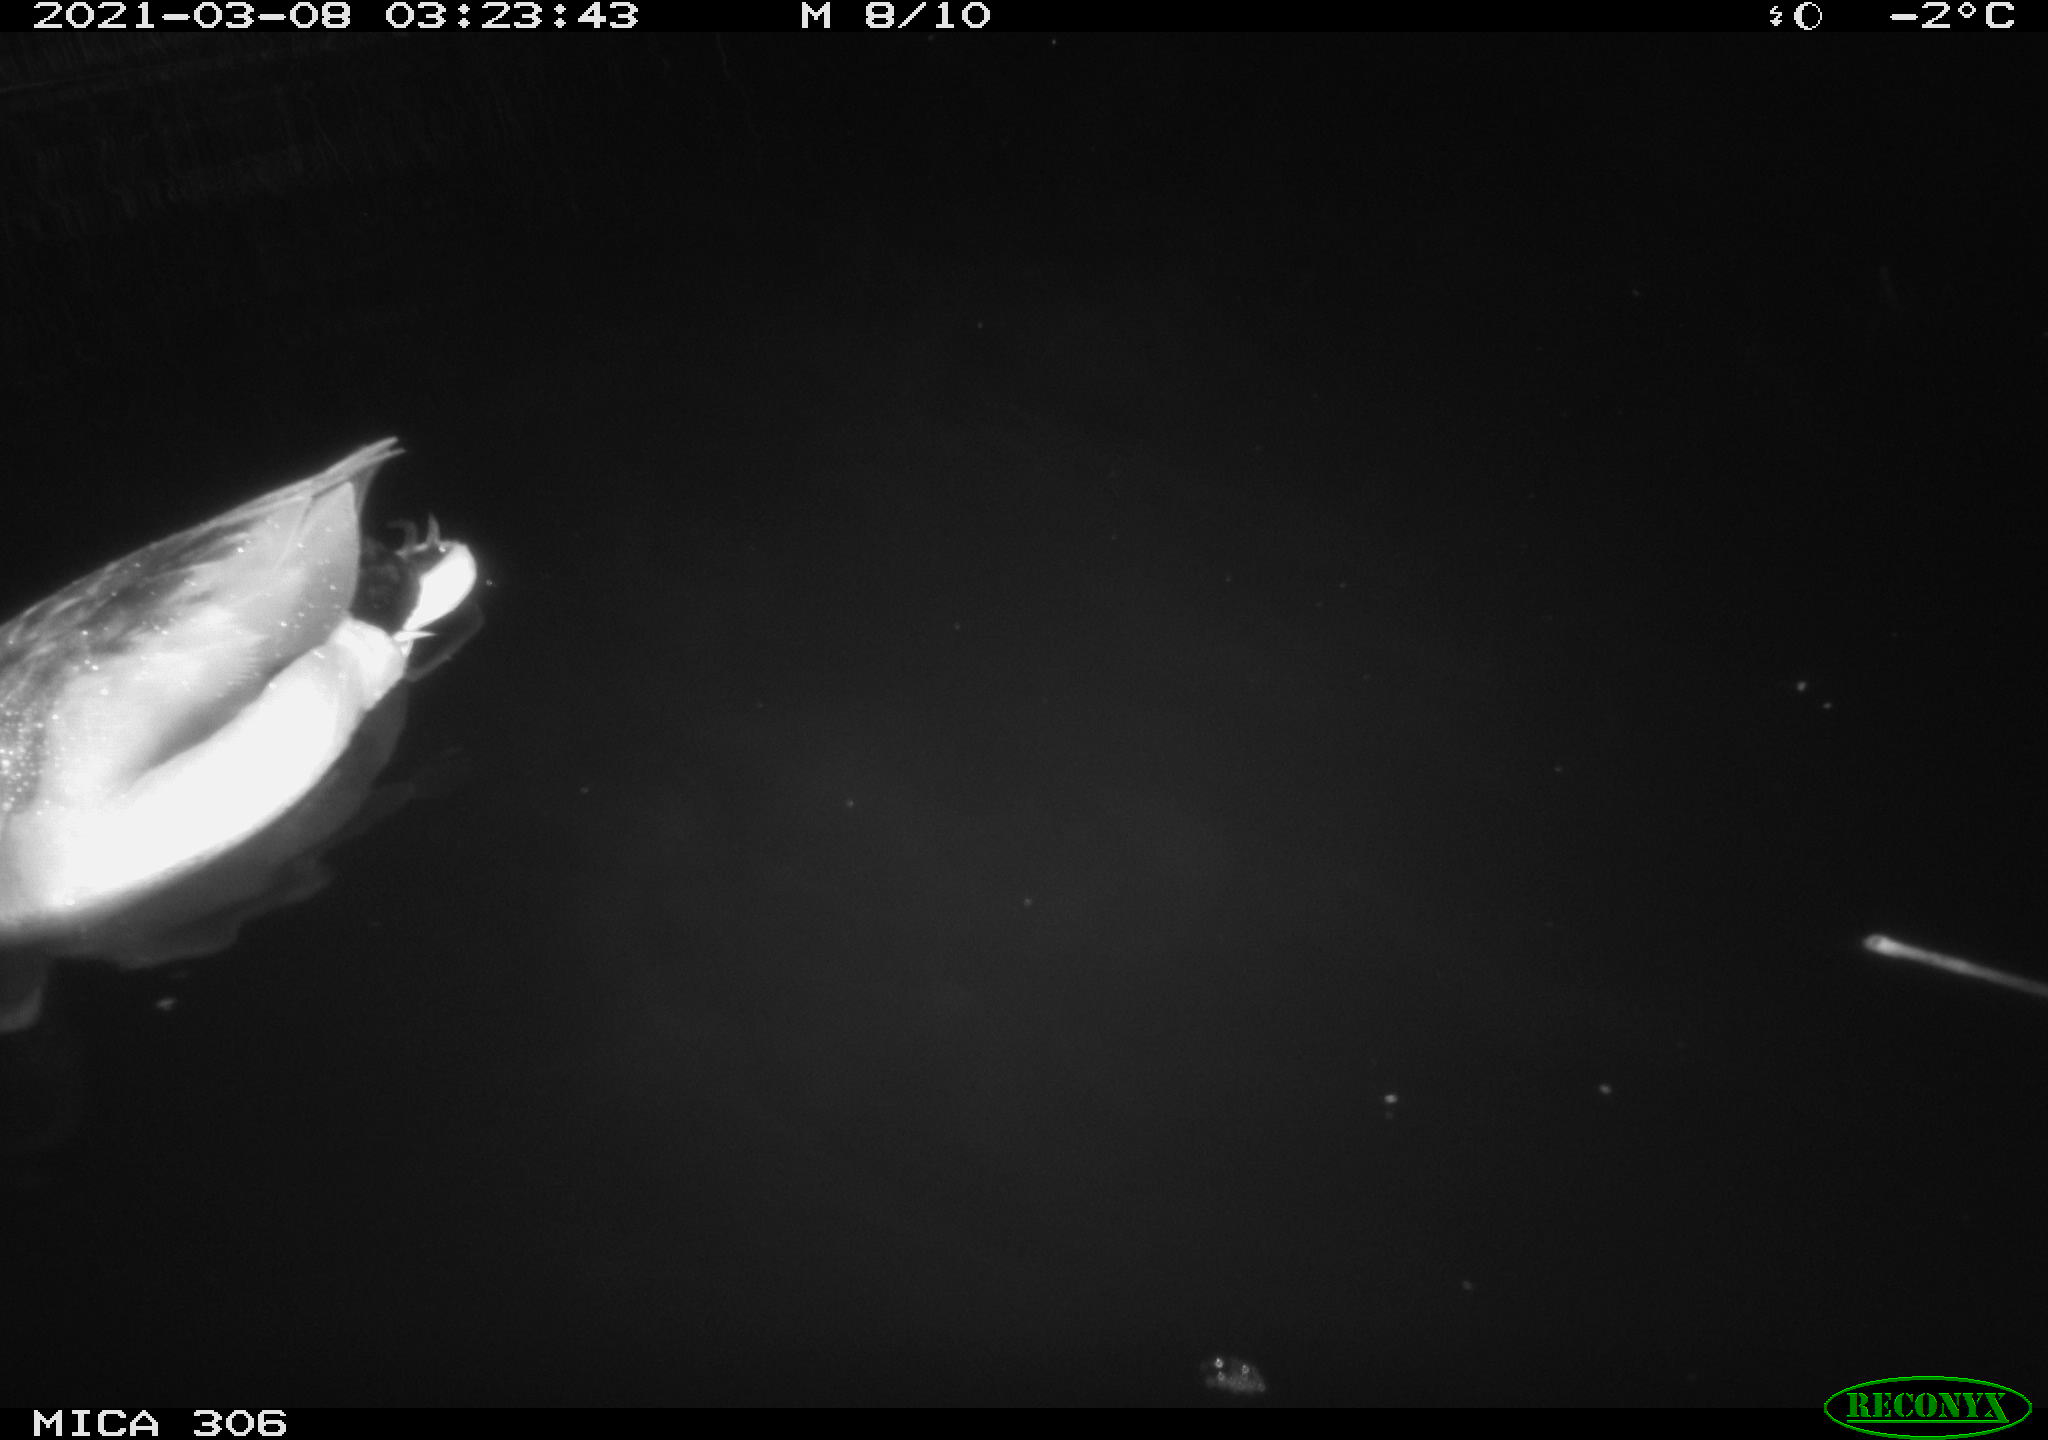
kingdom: Animalia
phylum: Chordata
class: Aves
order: Anseriformes
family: Anatidae
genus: Anas
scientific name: Anas platyrhynchos
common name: Mallard
